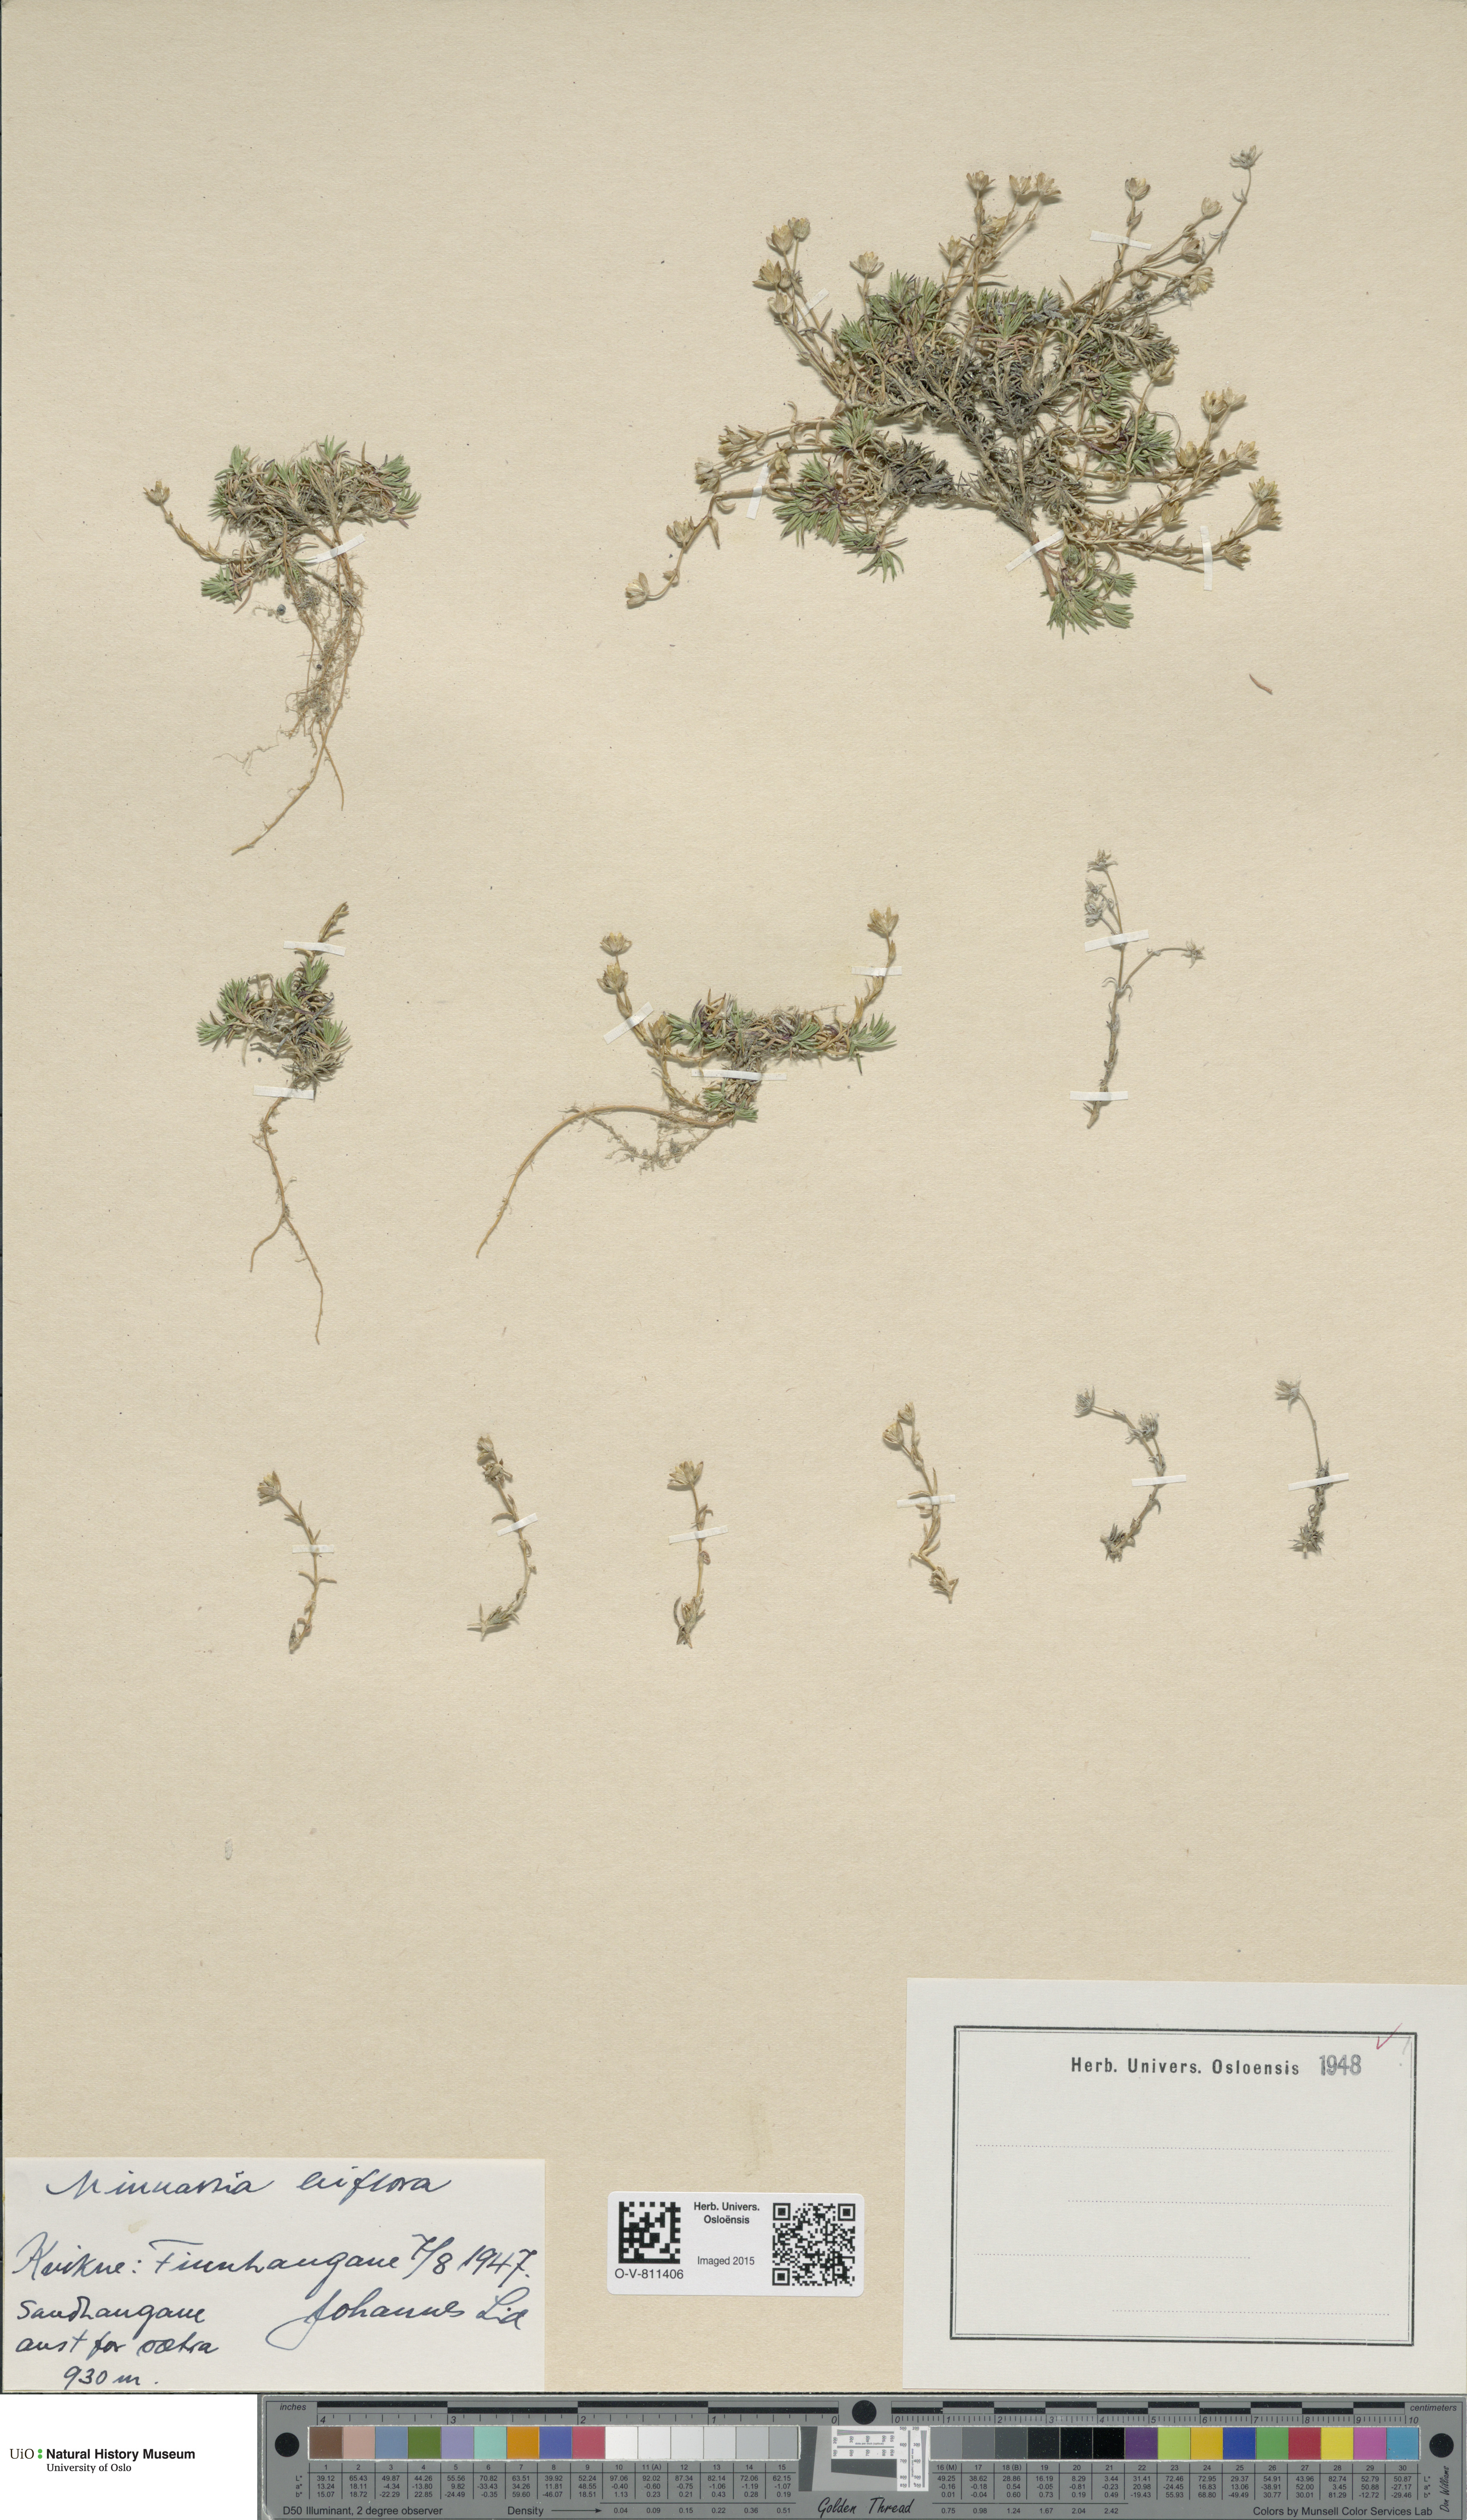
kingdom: Plantae
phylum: Tracheophyta
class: Magnoliopsida
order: Caryophyllales
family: Caryophyllaceae
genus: Cherleria
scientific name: Cherleria biflora
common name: Mountain sandwort
